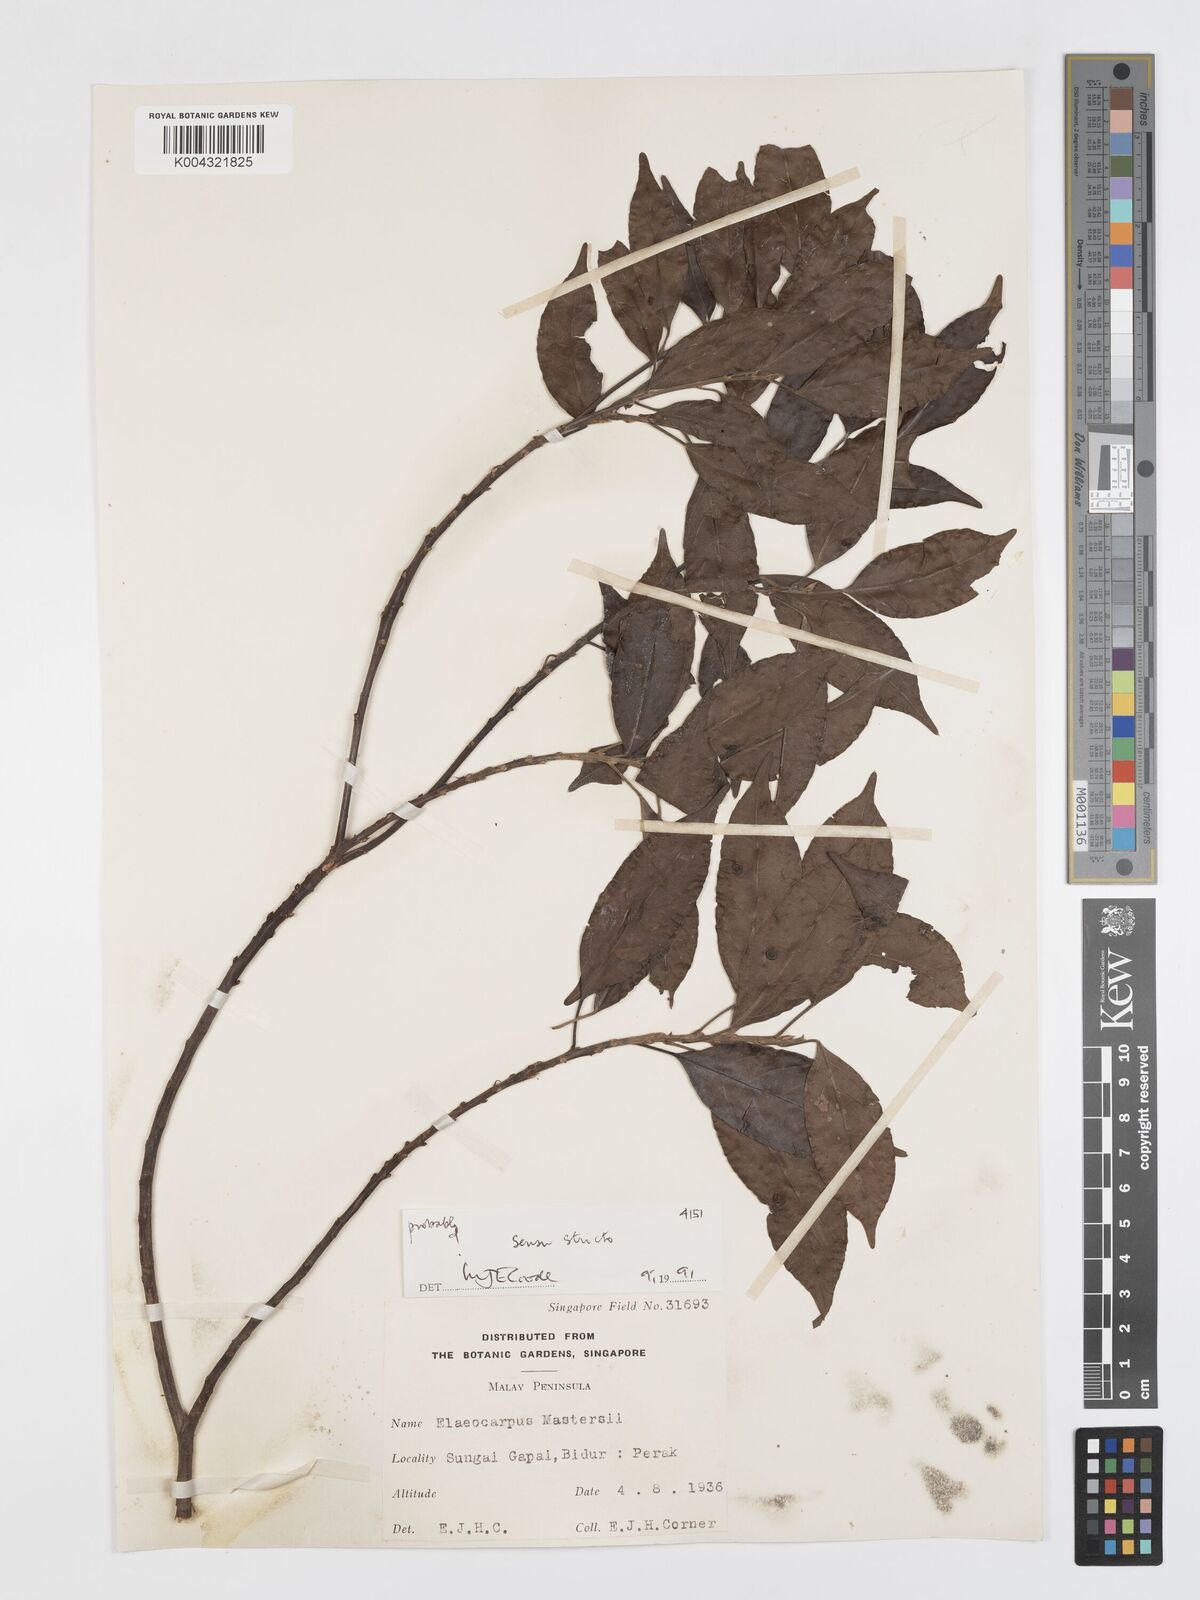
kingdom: Plantae
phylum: Tracheophyta
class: Magnoliopsida
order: Oxalidales
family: Elaeocarpaceae
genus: Elaeocarpus
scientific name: Elaeocarpus mastersii
